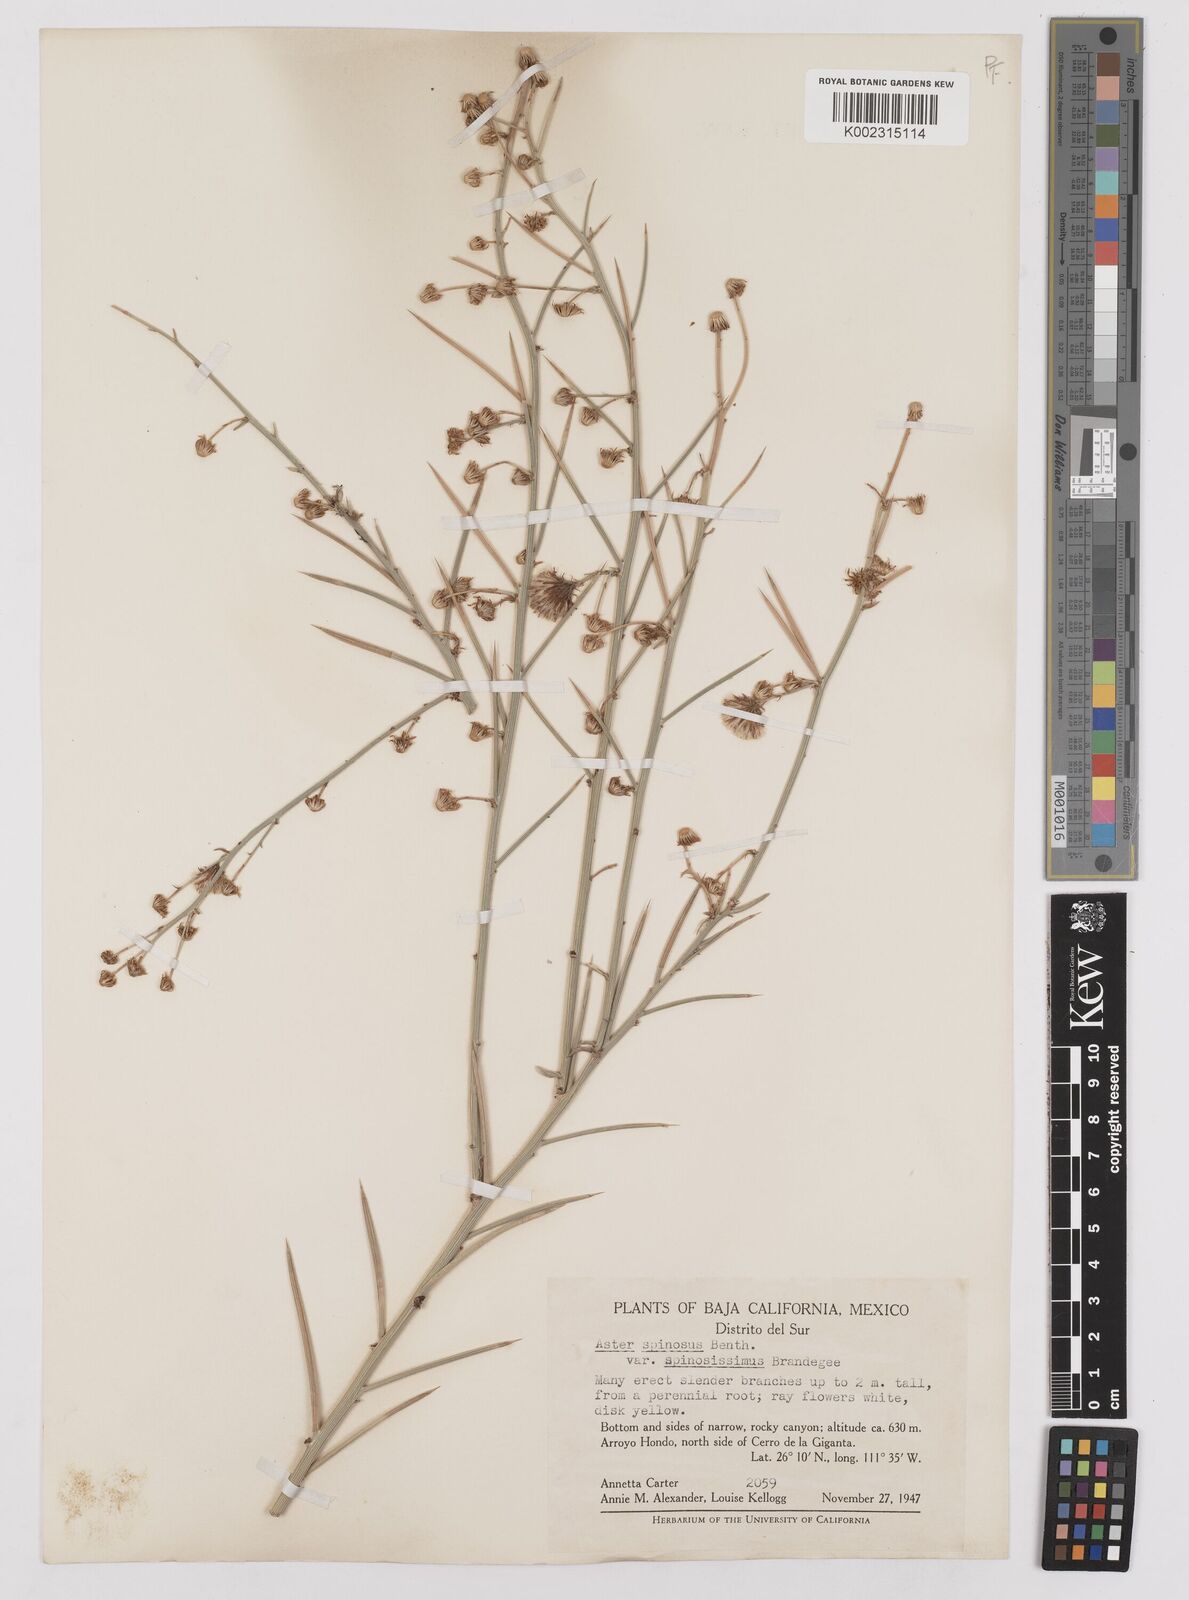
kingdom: Plantae
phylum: Tracheophyta
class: Magnoliopsida
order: Asterales
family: Asteraceae
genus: Chloracantha
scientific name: Chloracantha spinosa
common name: Mexican devilweed
